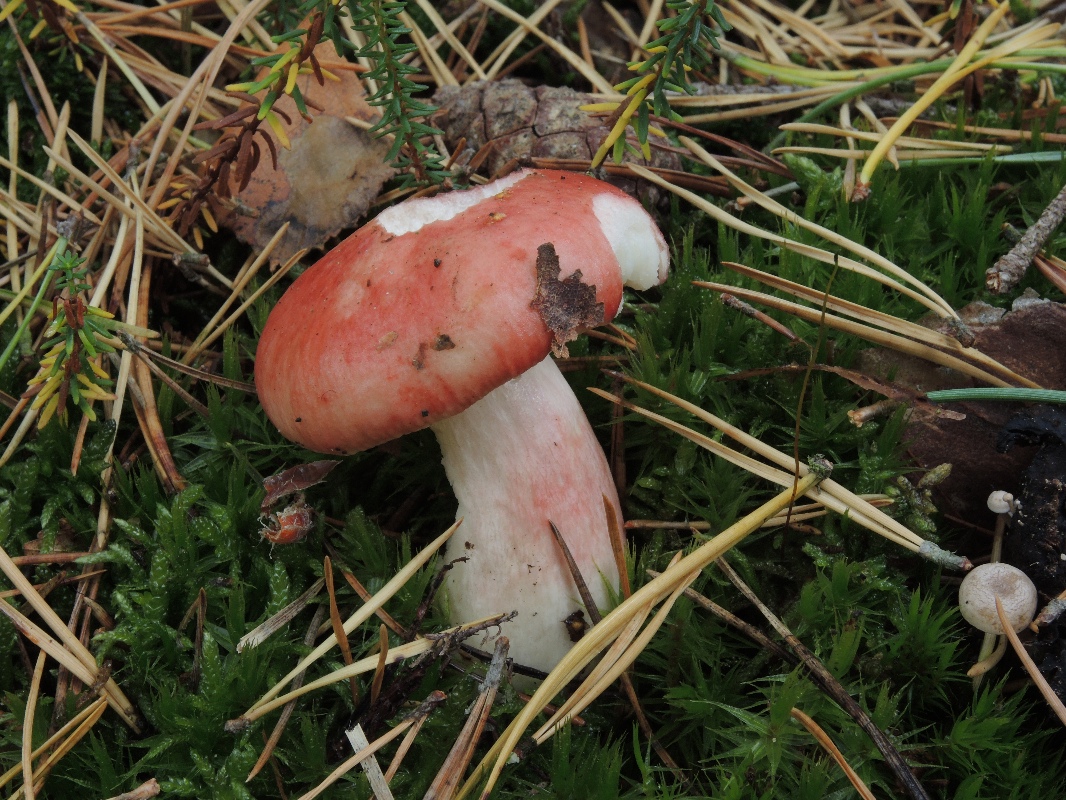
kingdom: Fungi
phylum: Basidiomycota
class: Agaricomycetes
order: Russulales
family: Russulaceae
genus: Russula
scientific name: Russula sanguinea
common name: blodrød skørhat
